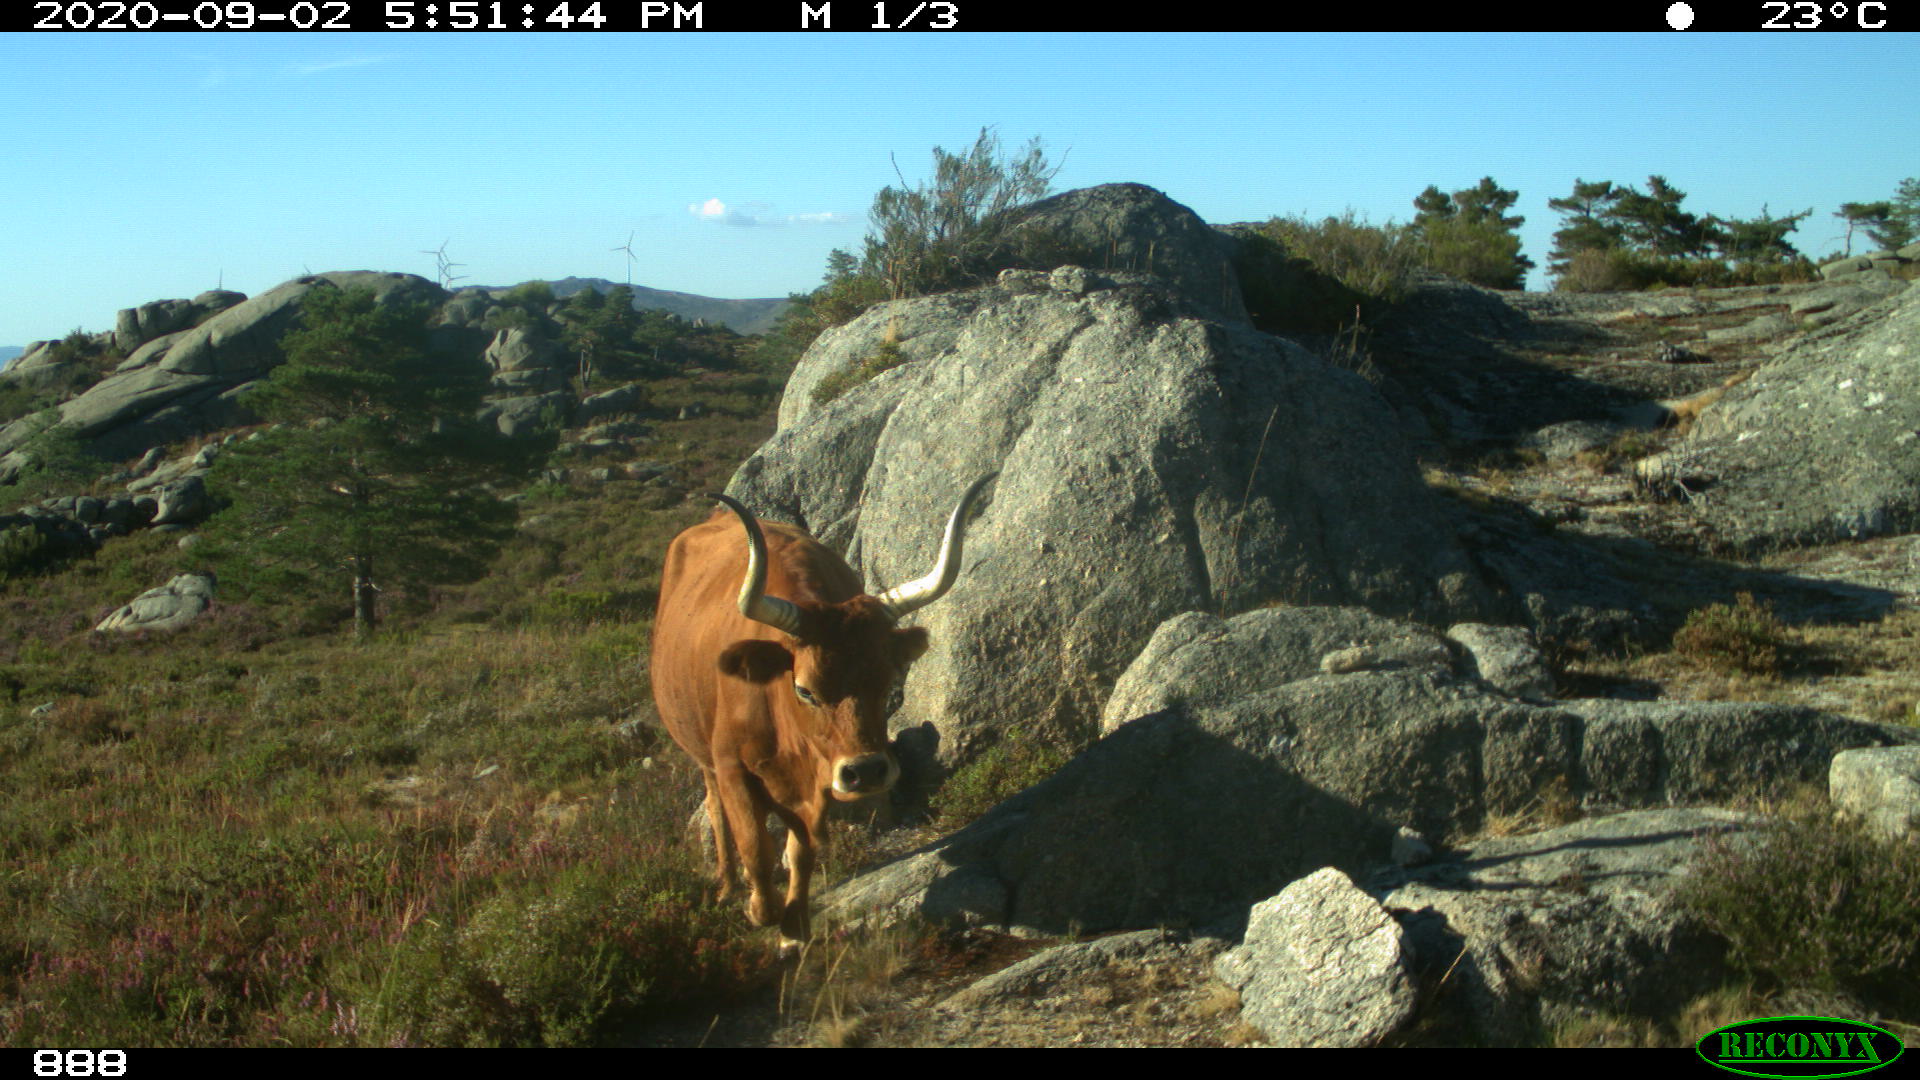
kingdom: Animalia
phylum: Chordata
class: Mammalia
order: Artiodactyla
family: Bovidae
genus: Bos
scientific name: Bos taurus
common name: Domesticated cattle
